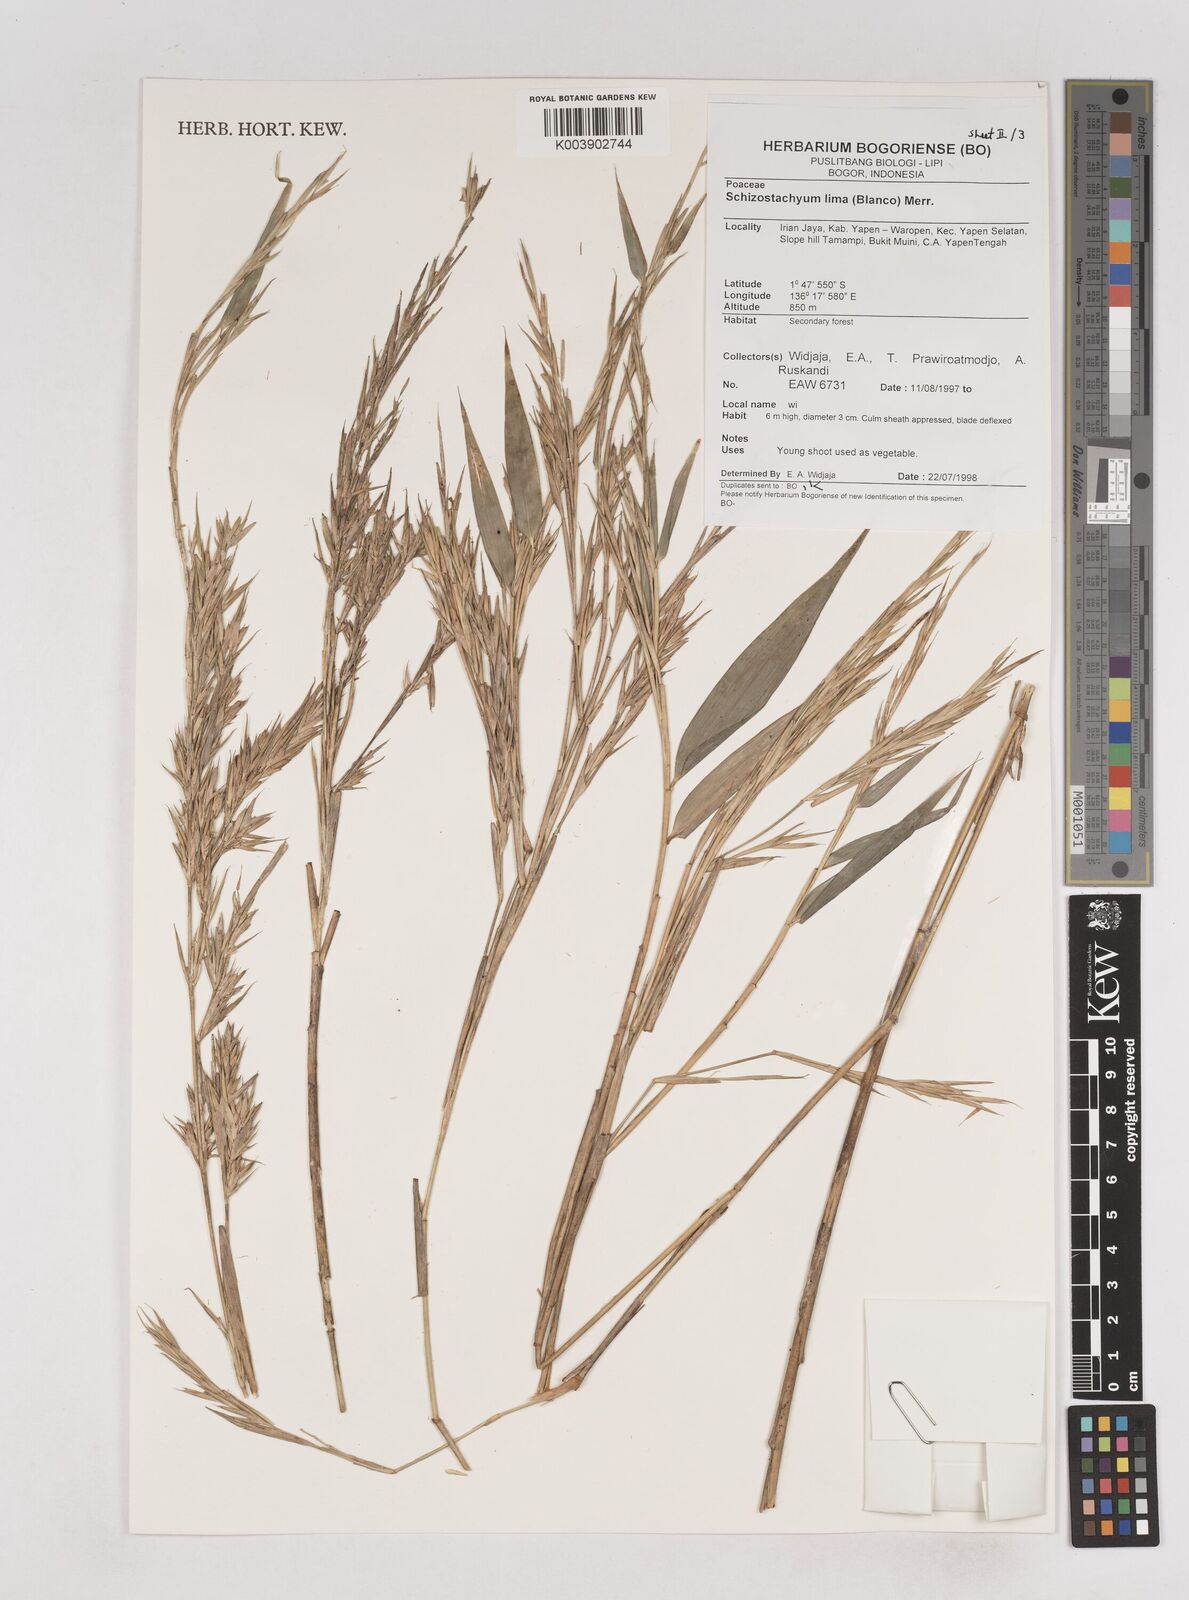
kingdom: Plantae
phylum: Tracheophyta
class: Liliopsida
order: Poales
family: Poaceae
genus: Schizostachyum
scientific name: Schizostachyum lima
